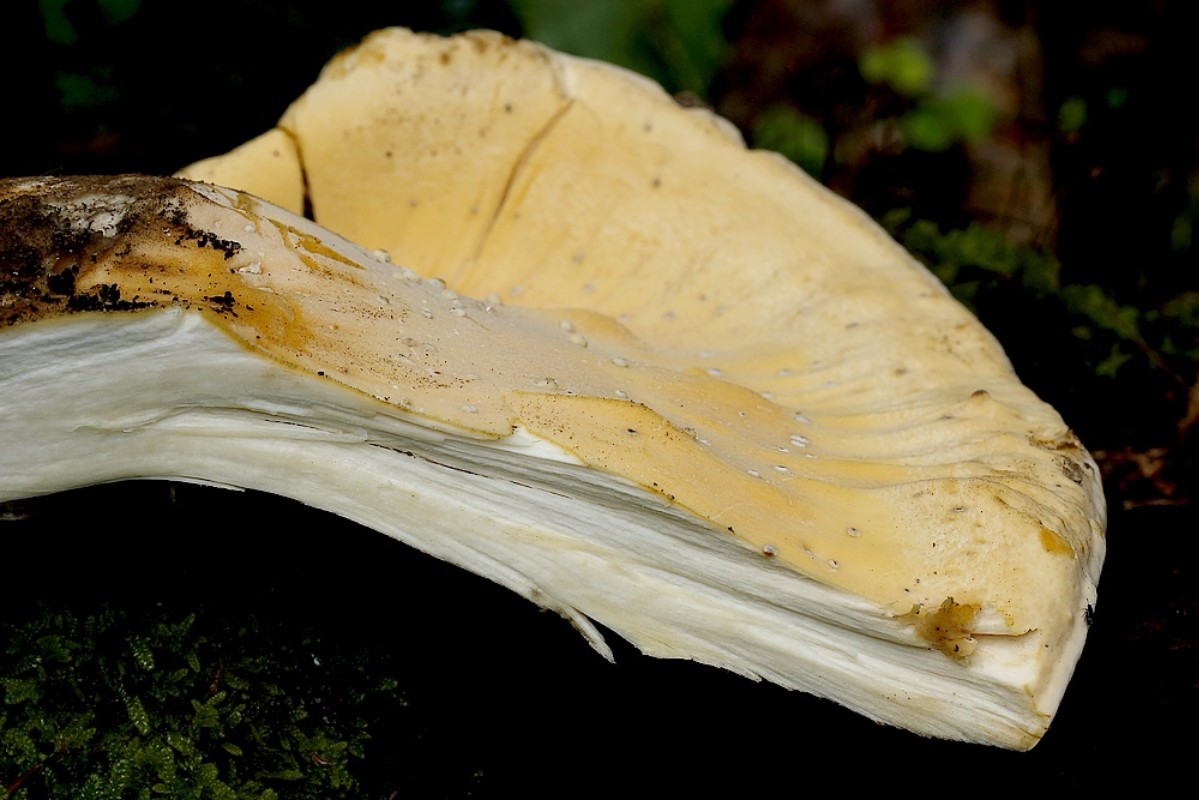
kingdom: Fungi
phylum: Basidiomycota
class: Agaricomycetes
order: Polyporales
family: Meripilaceae
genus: Meripilus
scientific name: Meripilus giganteus
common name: kæmpeporesvamp
